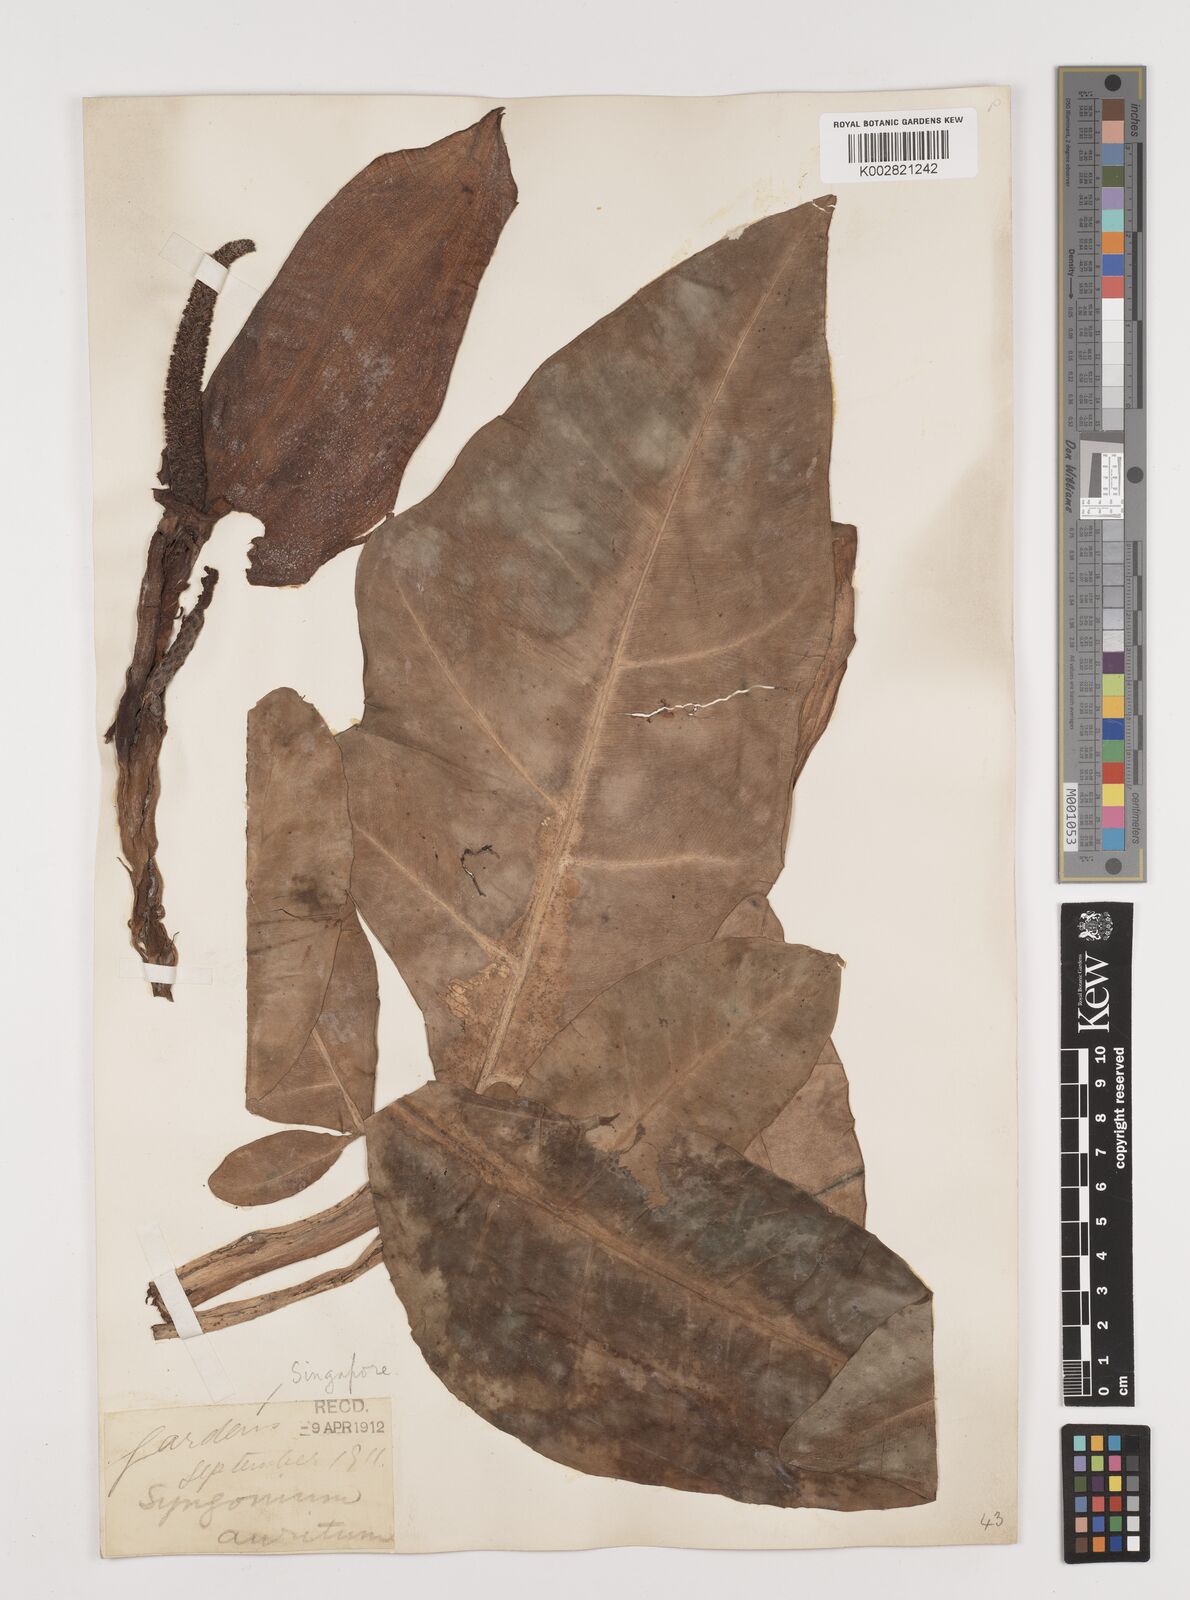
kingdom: Plantae
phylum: Tracheophyta
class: Liliopsida
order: Alismatales
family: Araceae
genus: Syngonium
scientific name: Syngonium auritum
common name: Five-fingers
